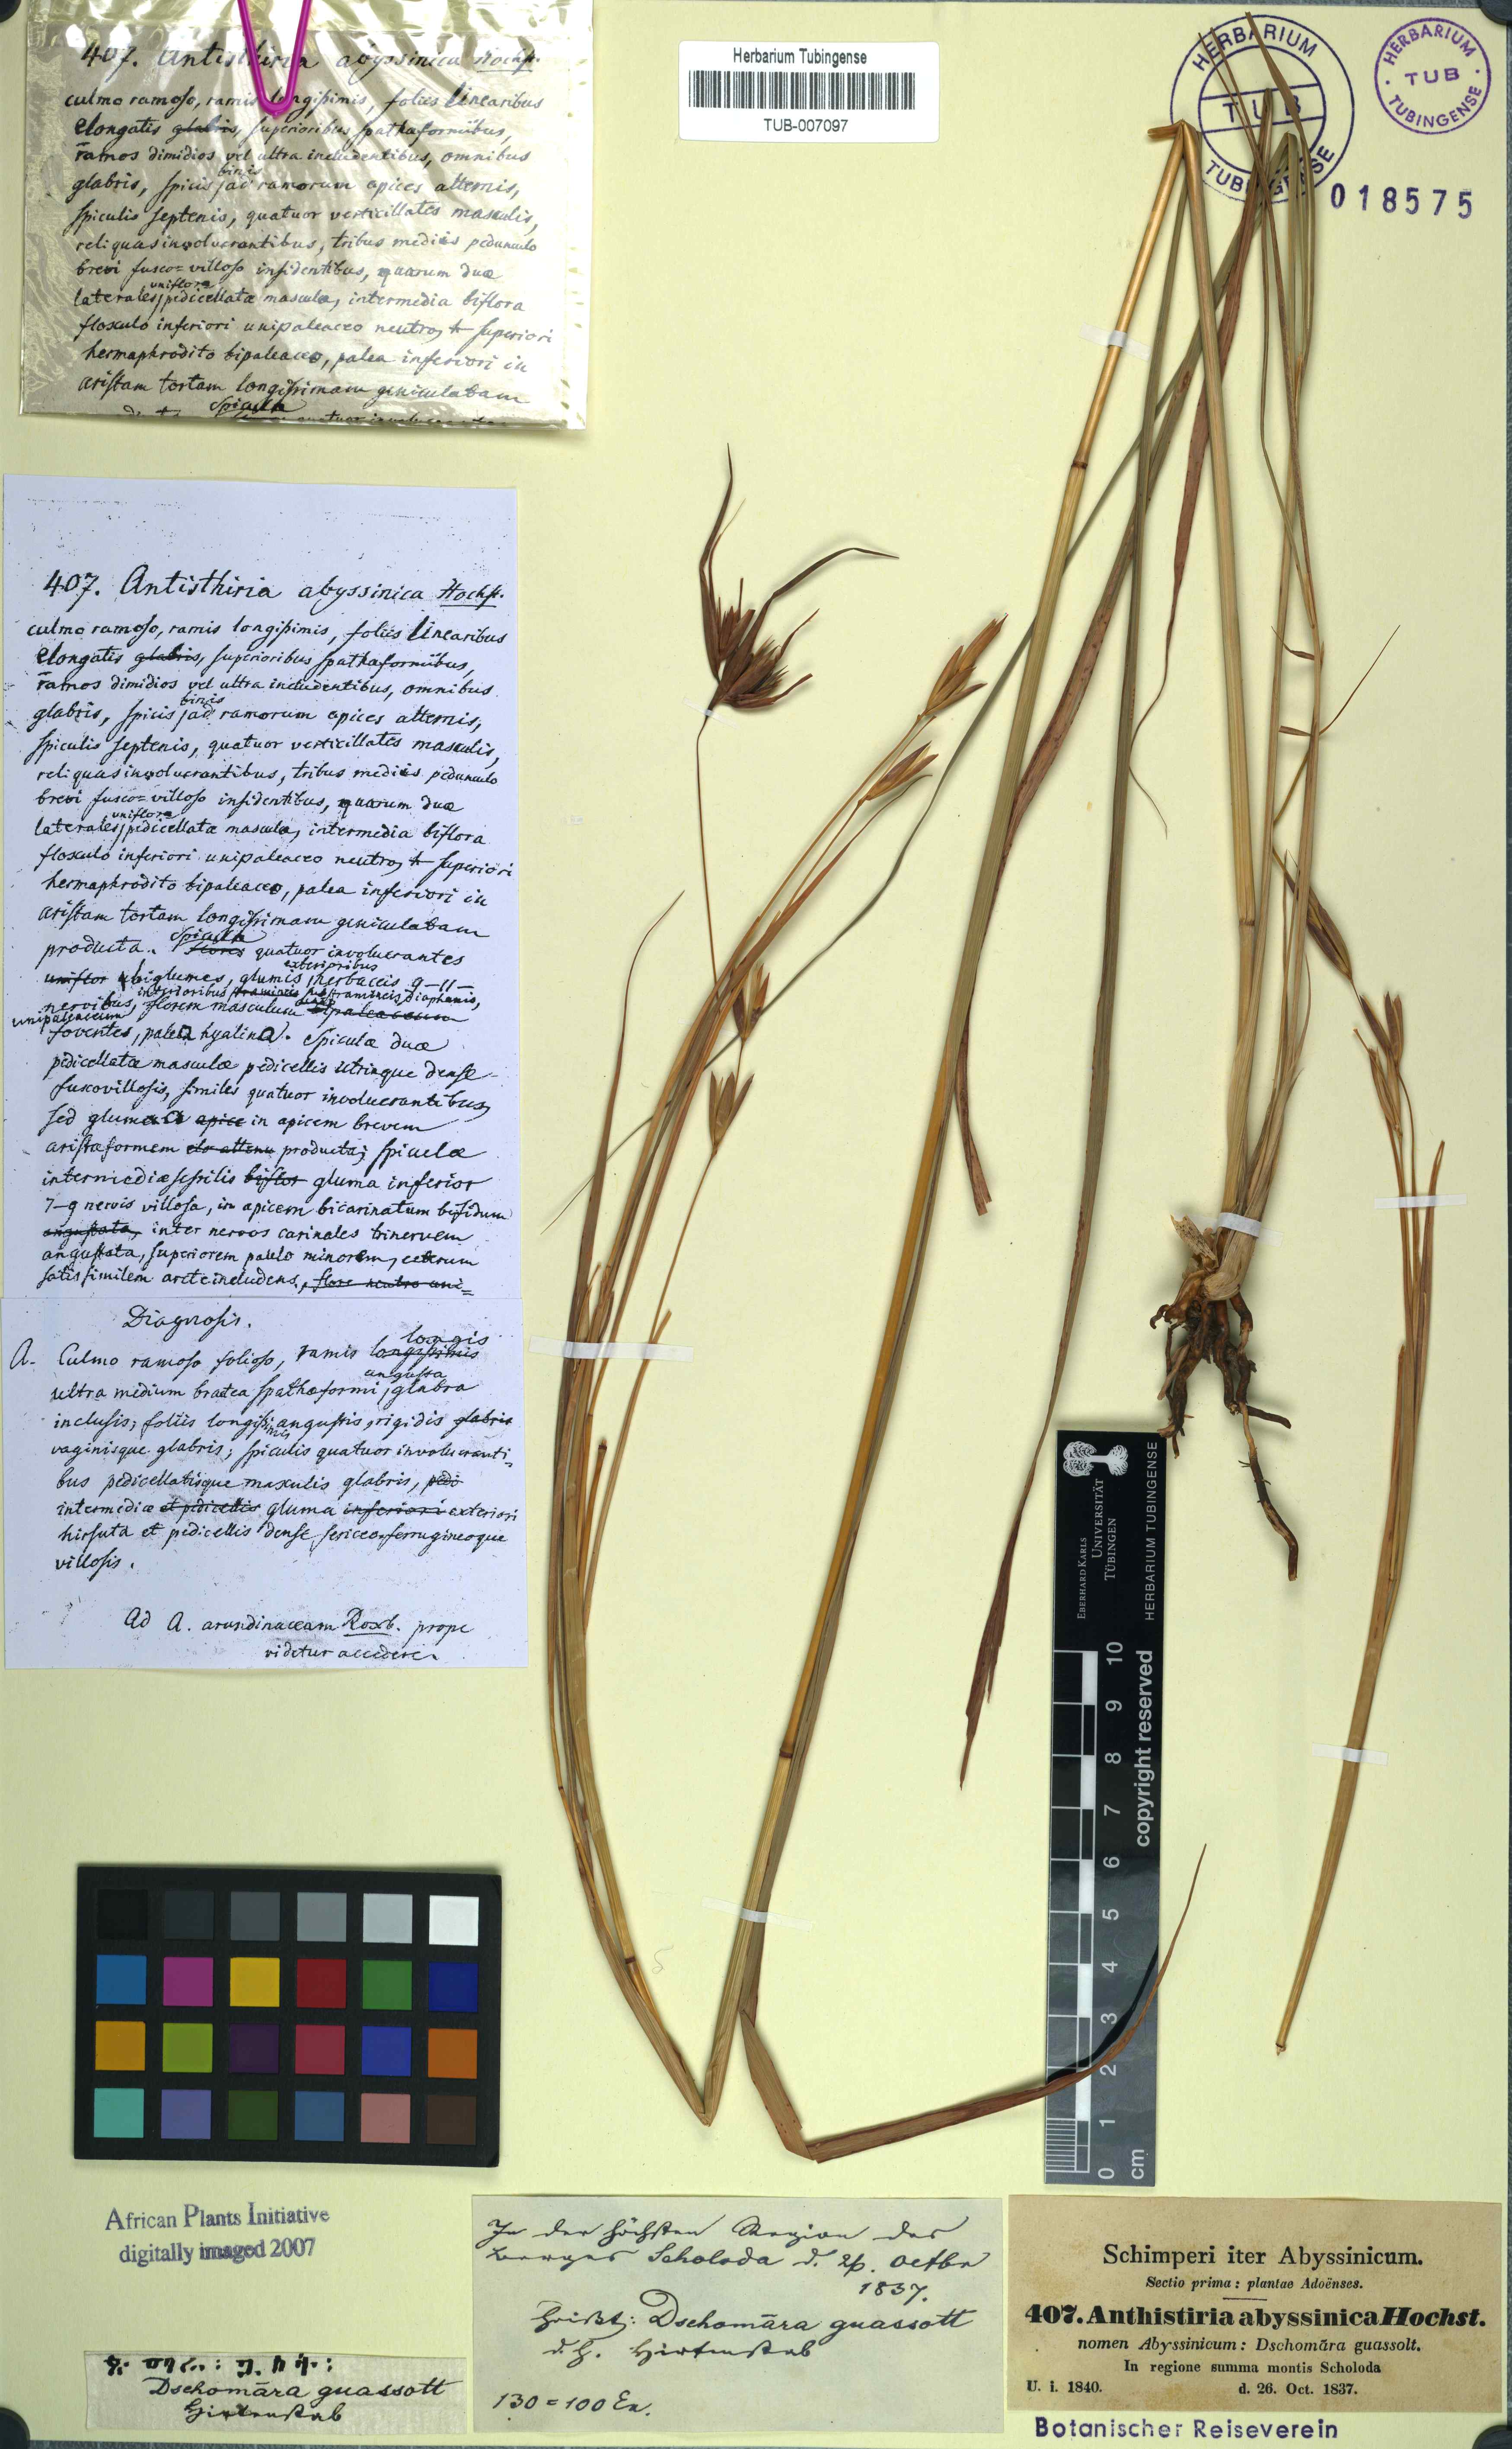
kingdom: Plantae
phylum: Tracheophyta
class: Liliopsida
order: Poales
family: Poaceae
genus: Exotheca
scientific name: Exotheca abyssinica
